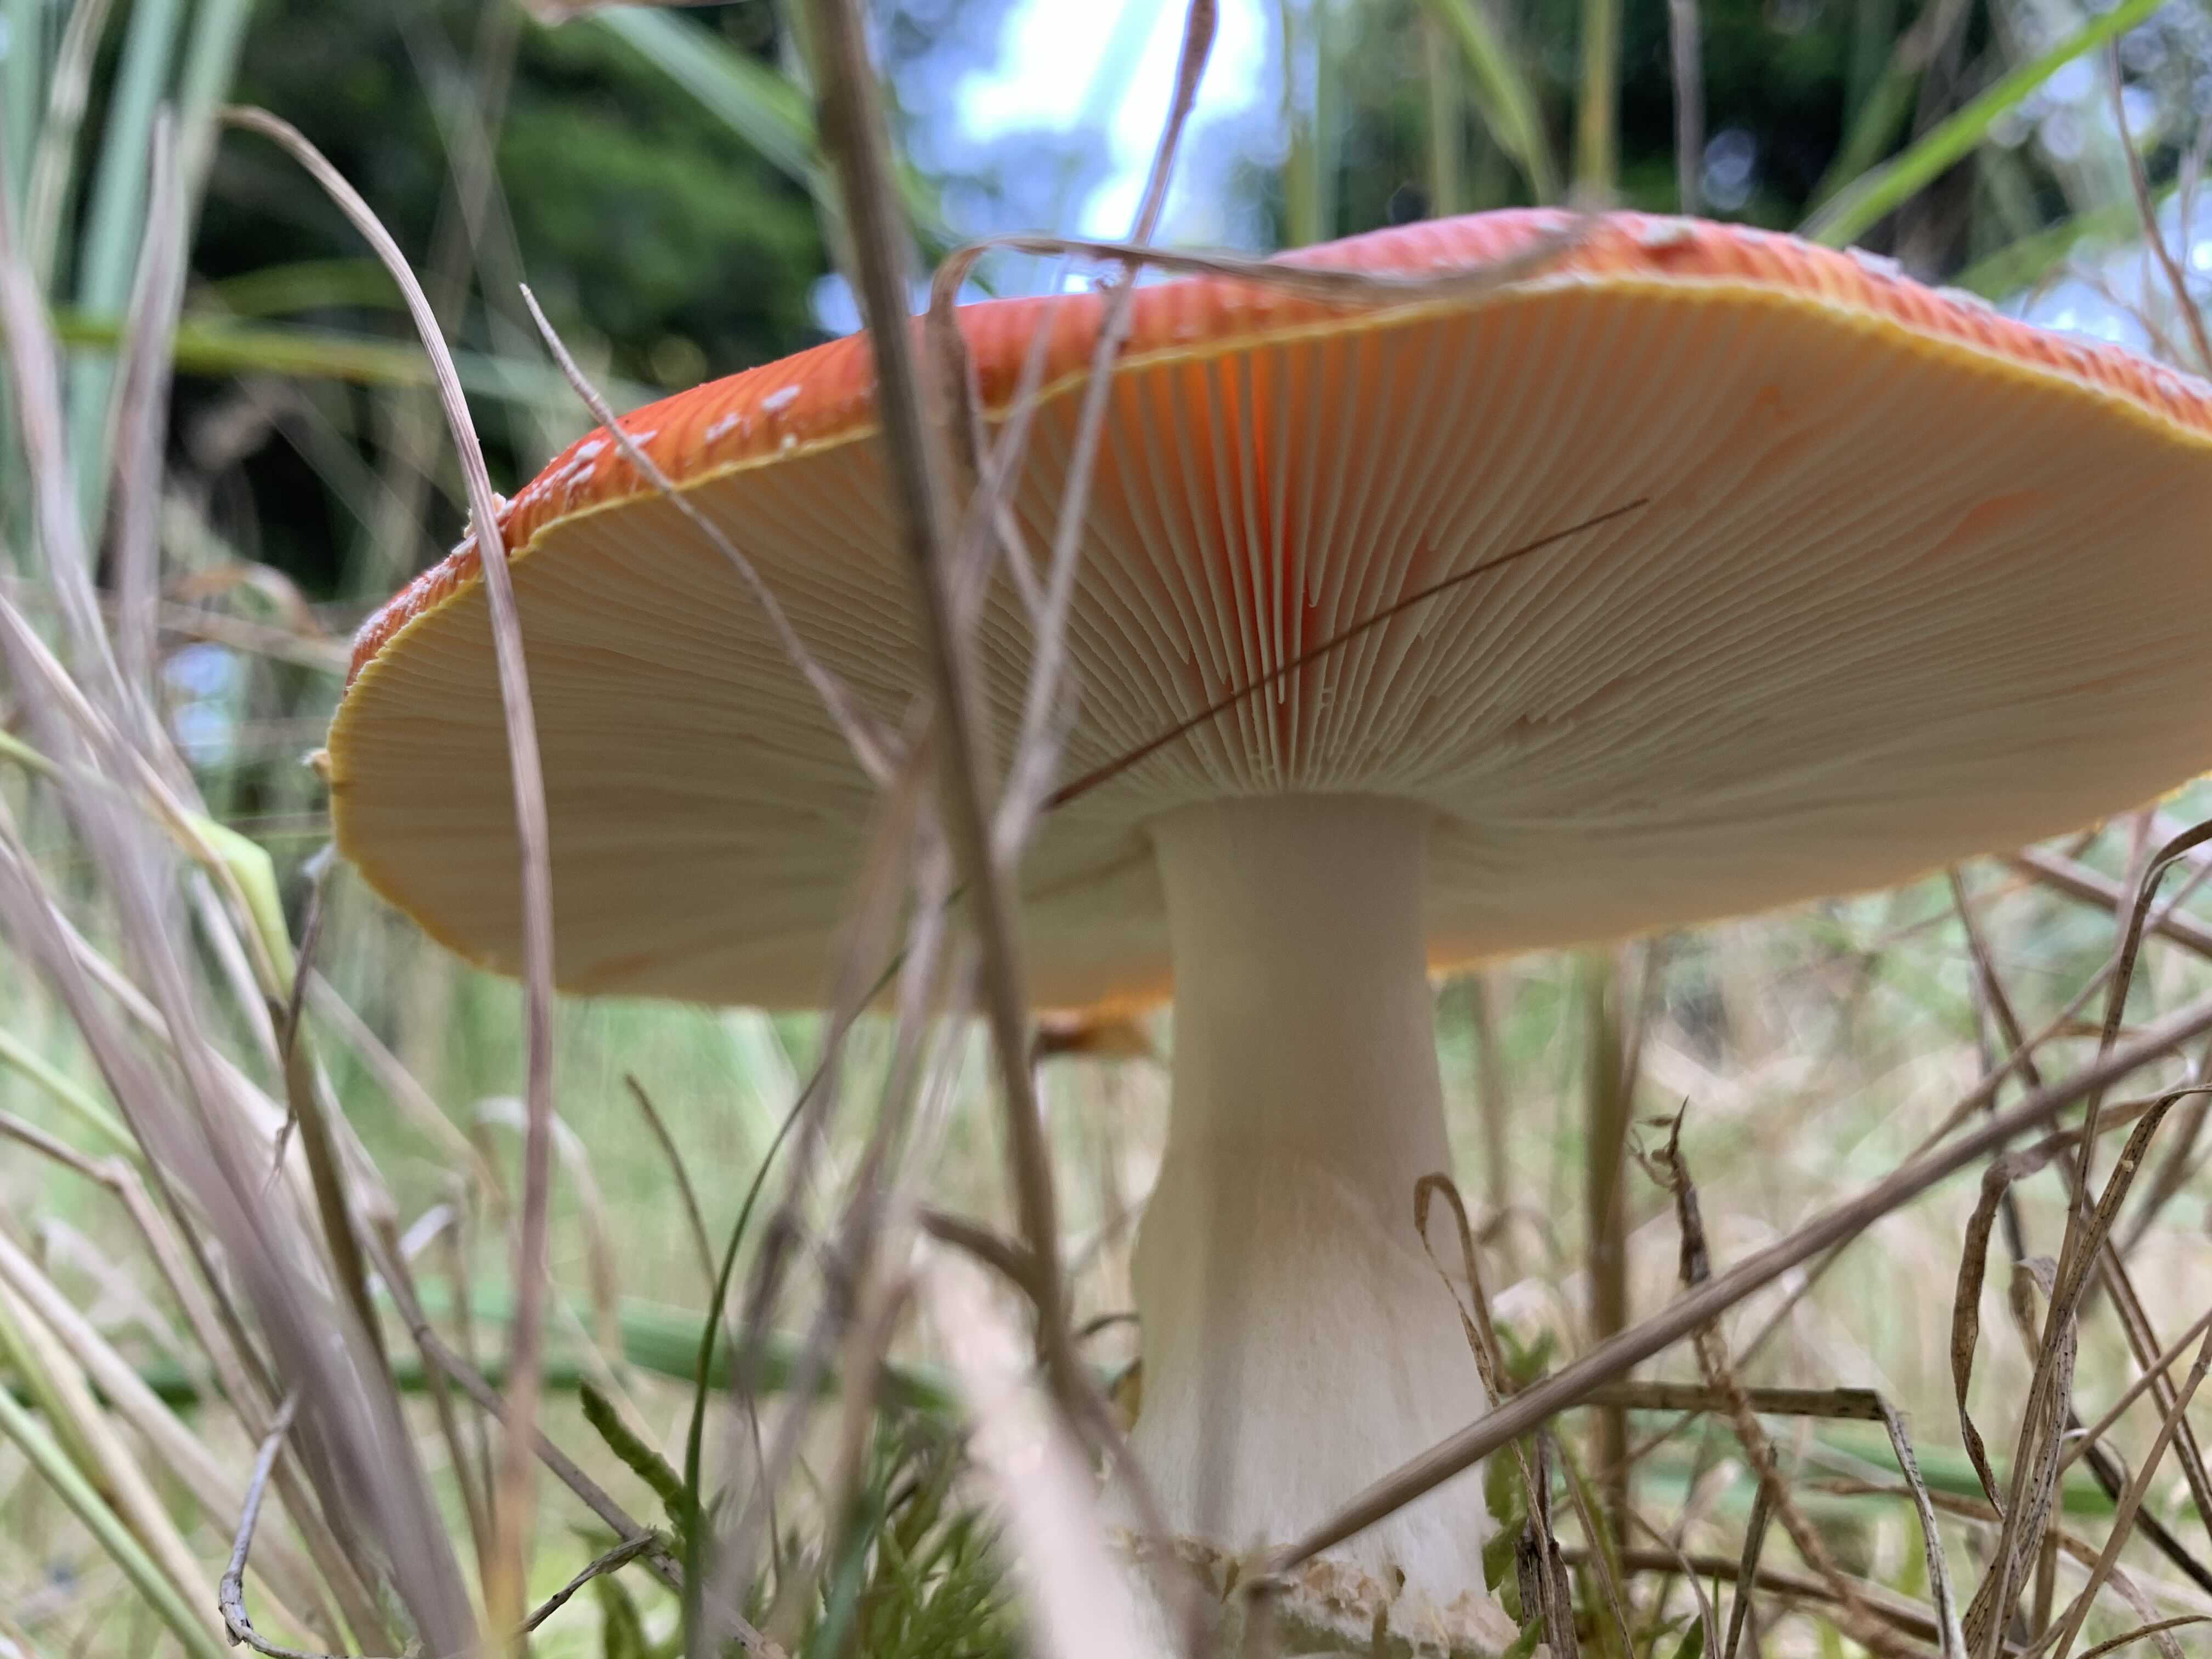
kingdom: Fungi
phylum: Basidiomycota
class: Agaricomycetes
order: Agaricales
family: Amanitaceae
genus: Amanita
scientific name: Amanita muscaria
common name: rød fluesvamp
